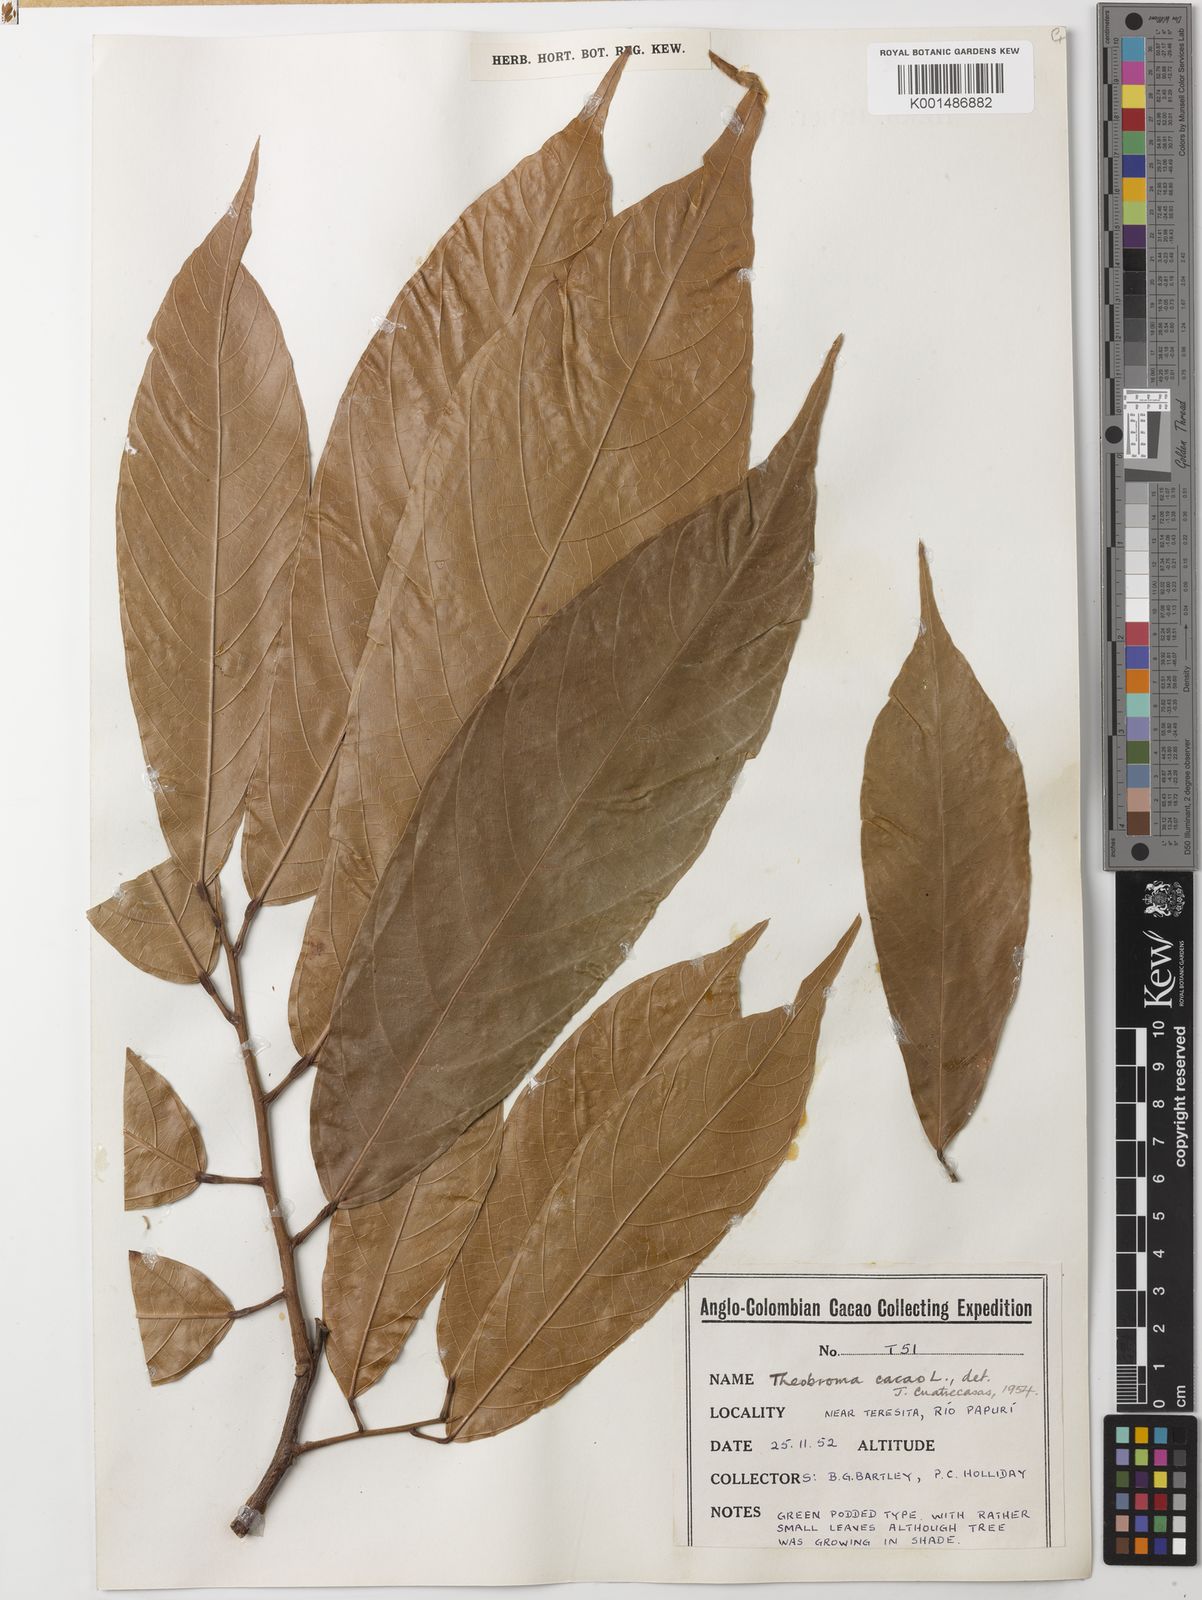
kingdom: Plantae
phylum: Tracheophyta
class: Magnoliopsida
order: Malvales
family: Malvaceae
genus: Theobroma
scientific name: Theobroma cacao
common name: Cocoa
